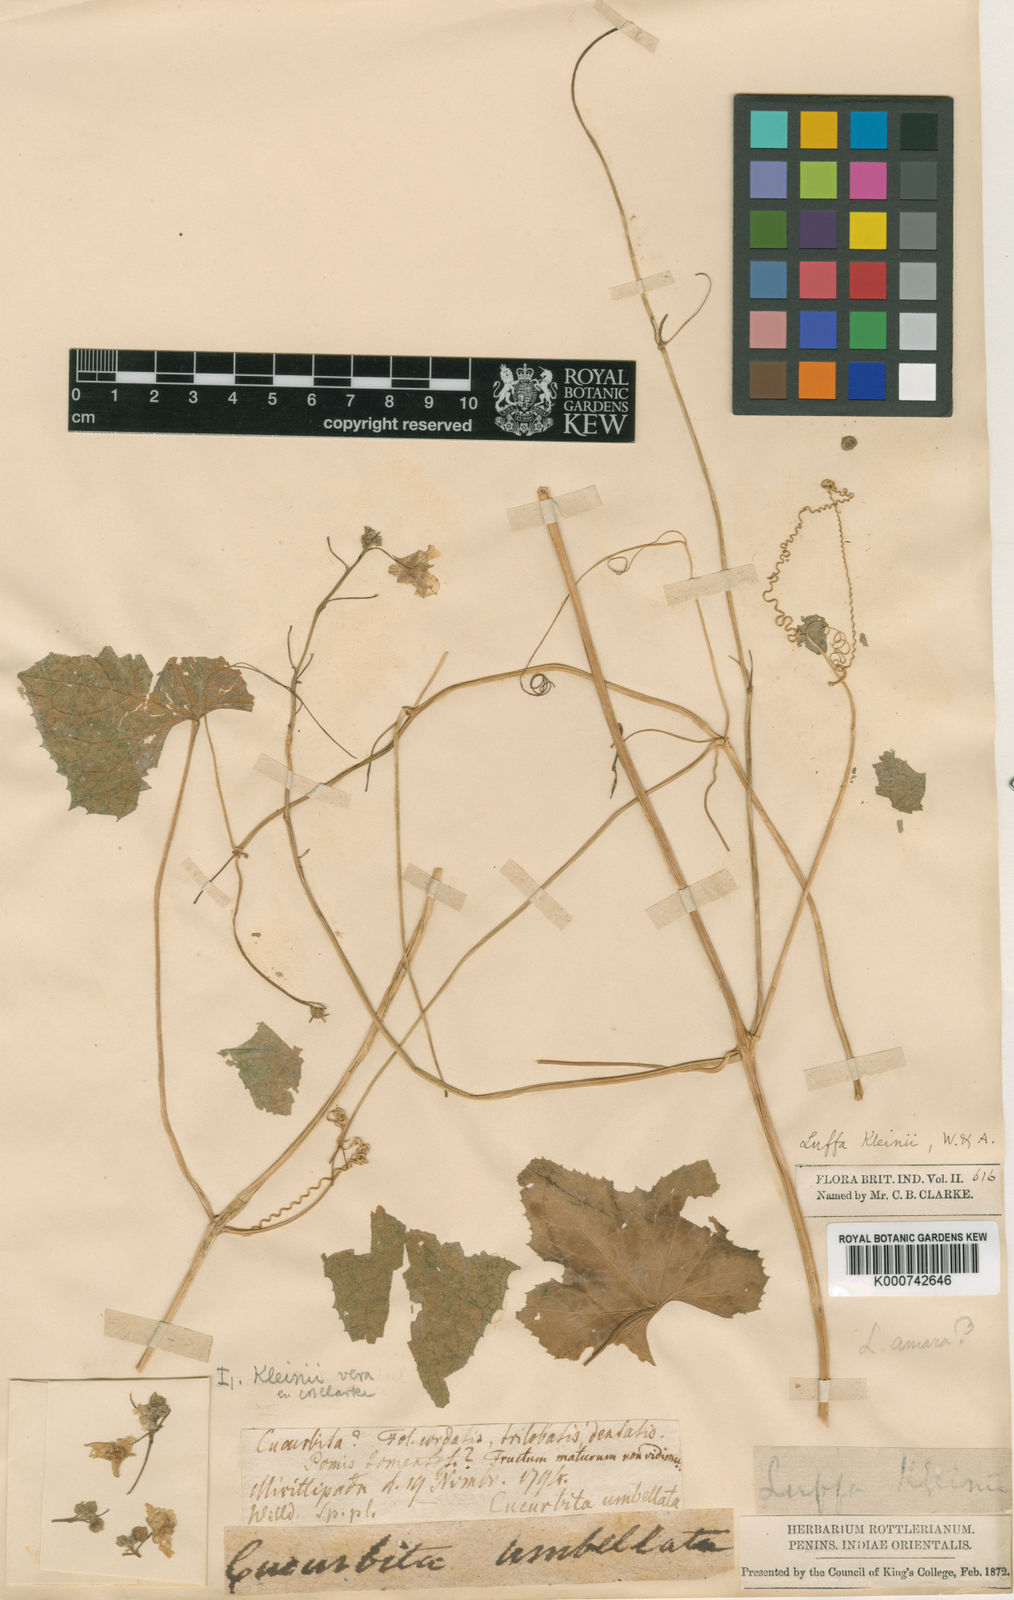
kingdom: Plantae
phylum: Tracheophyta
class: Magnoliopsida
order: Cucurbitales
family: Cucurbitaceae
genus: Luffa
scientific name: Luffa acutangula
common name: Sinkwa towelsponge
